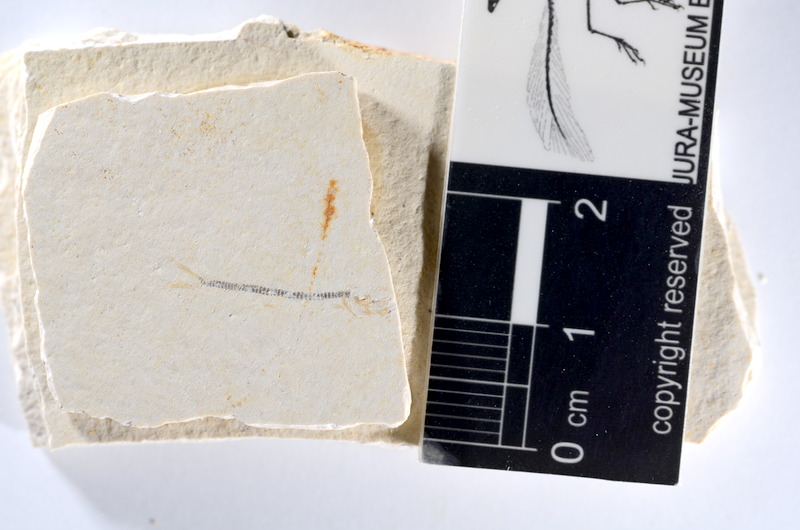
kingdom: Animalia
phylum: Chordata
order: Salmoniformes
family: Orthogonikleithridae
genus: Orthogonikleithrus
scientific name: Orthogonikleithrus hoelli
